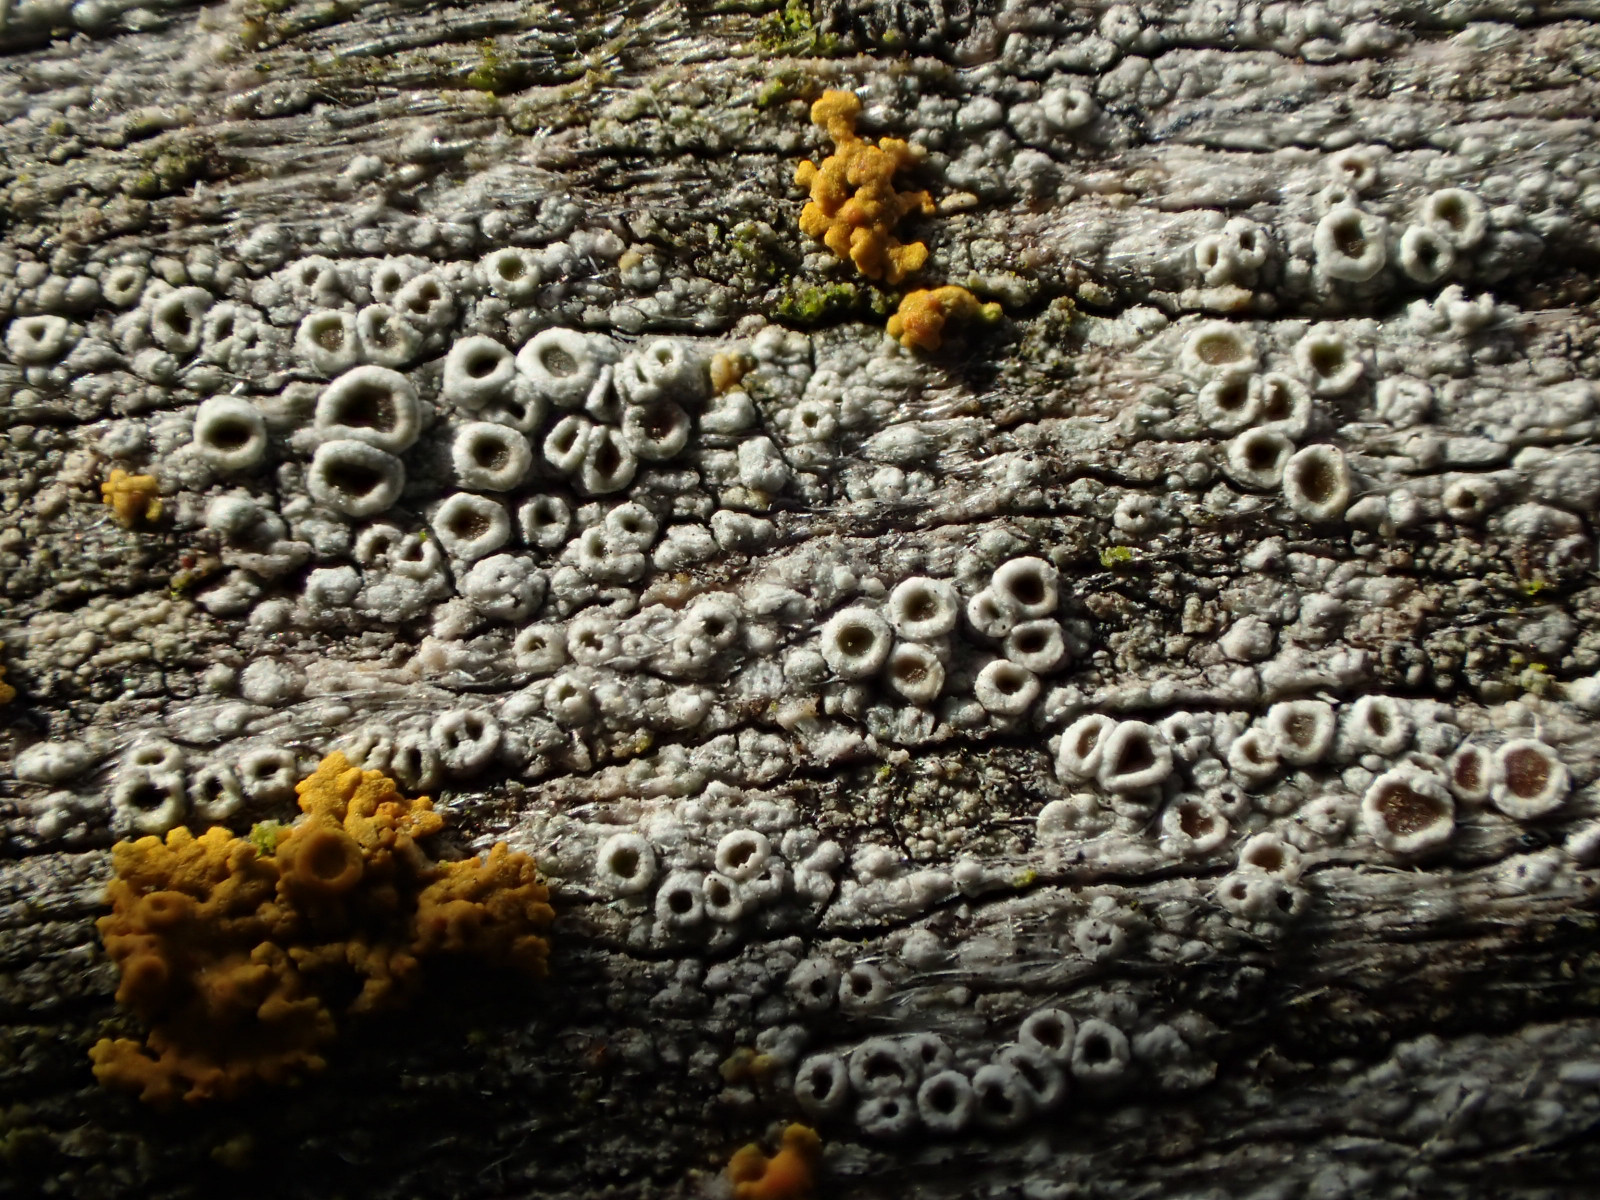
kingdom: Fungi
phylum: Ascomycota
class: Lecanoromycetes
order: Lecanorales
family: Lecanoraceae
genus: Lecanora
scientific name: Lecanora
